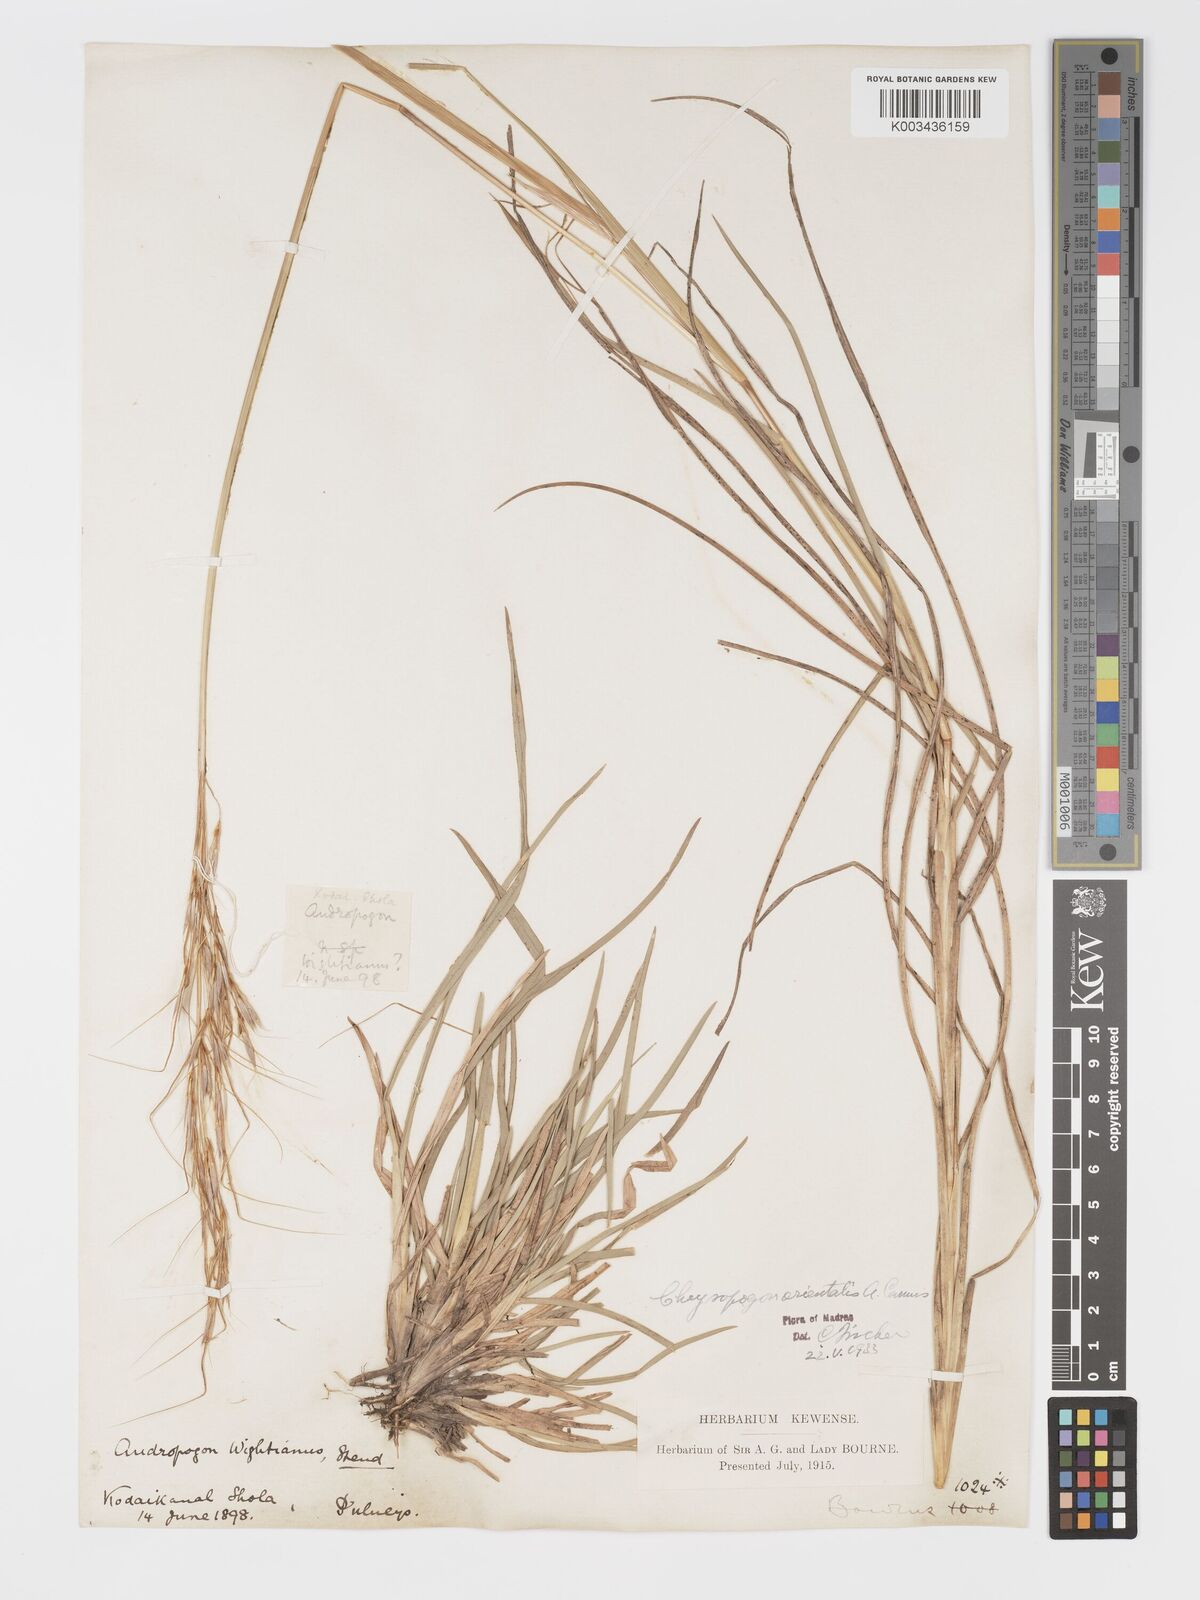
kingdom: Plantae
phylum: Tracheophyta
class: Liliopsida
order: Poales
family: Poaceae
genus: Chrysopogon
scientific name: Chrysopogon orientalis
